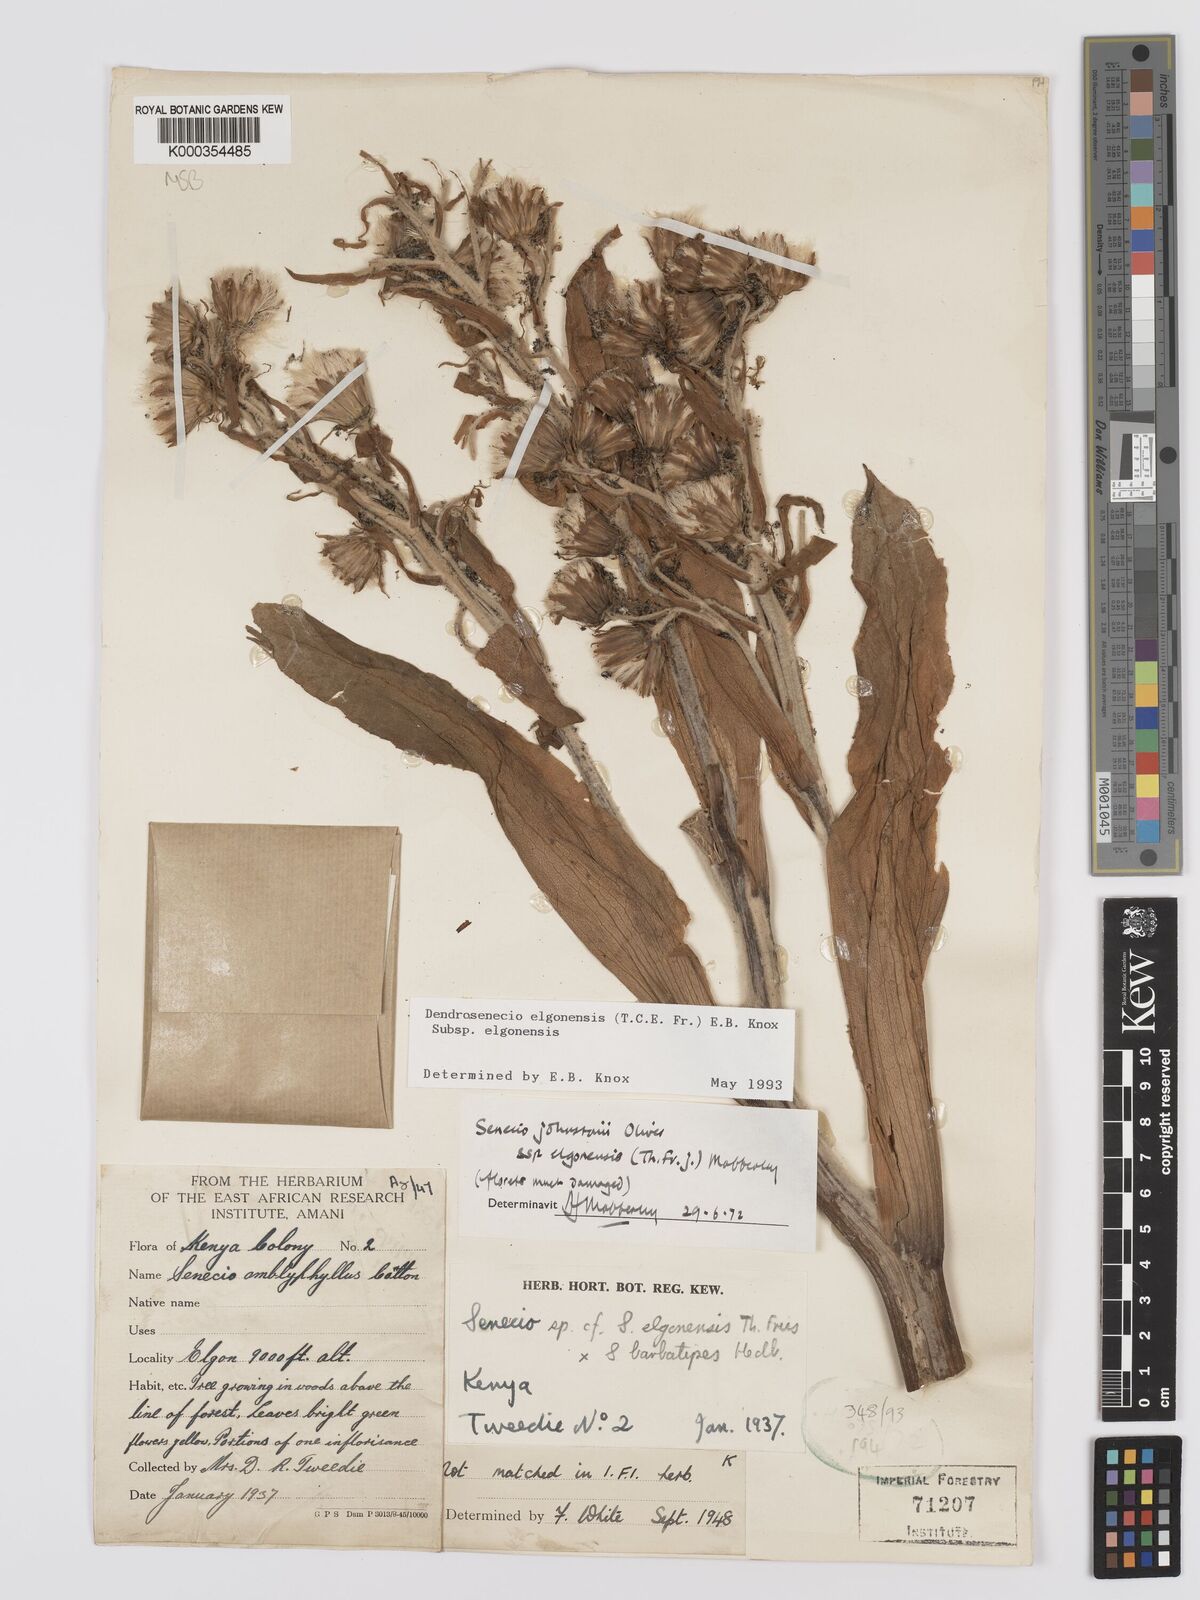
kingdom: Plantae
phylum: Tracheophyta
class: Magnoliopsida
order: Asterales
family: Asteraceae
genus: Dendrosenecio
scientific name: Dendrosenecio elgonensis
